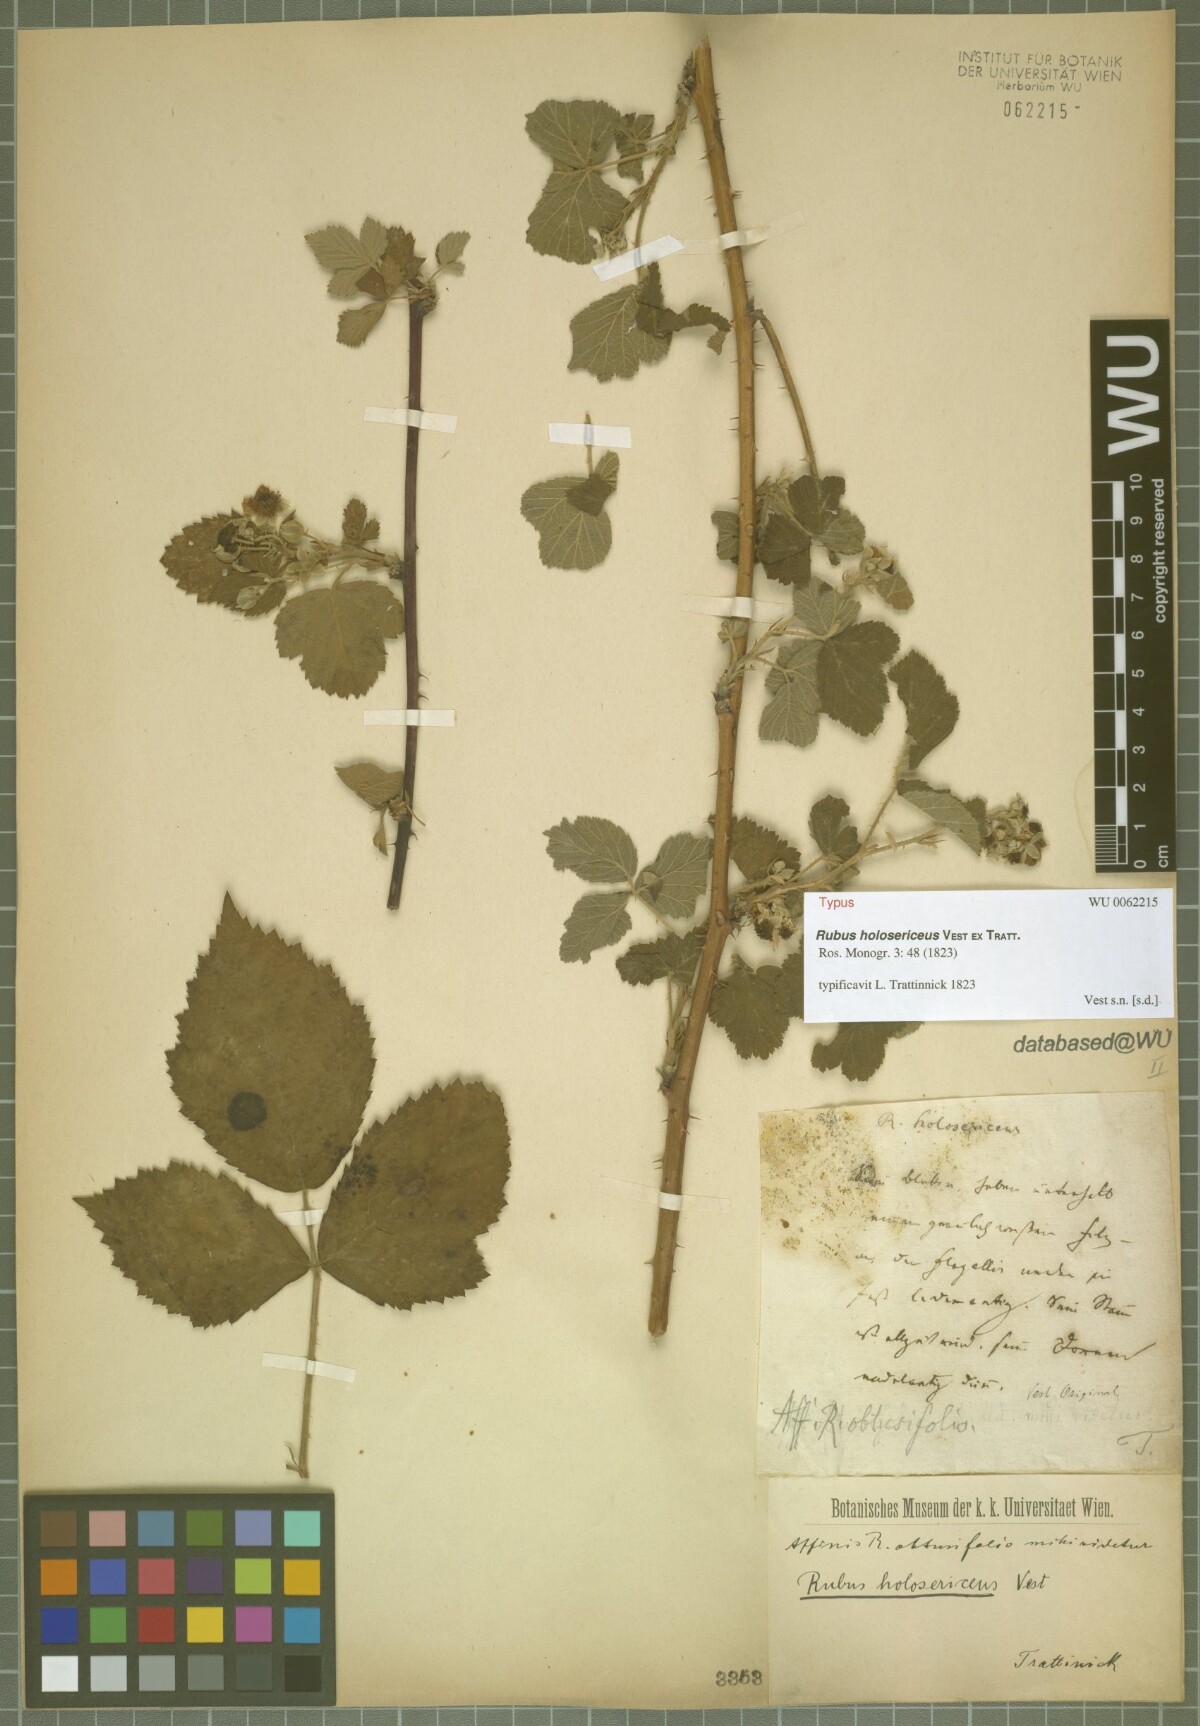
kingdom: Plantae
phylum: Tracheophyta
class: Magnoliopsida
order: Rosales
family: Rosaceae
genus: Rubus
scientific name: Rubus holosericeus
